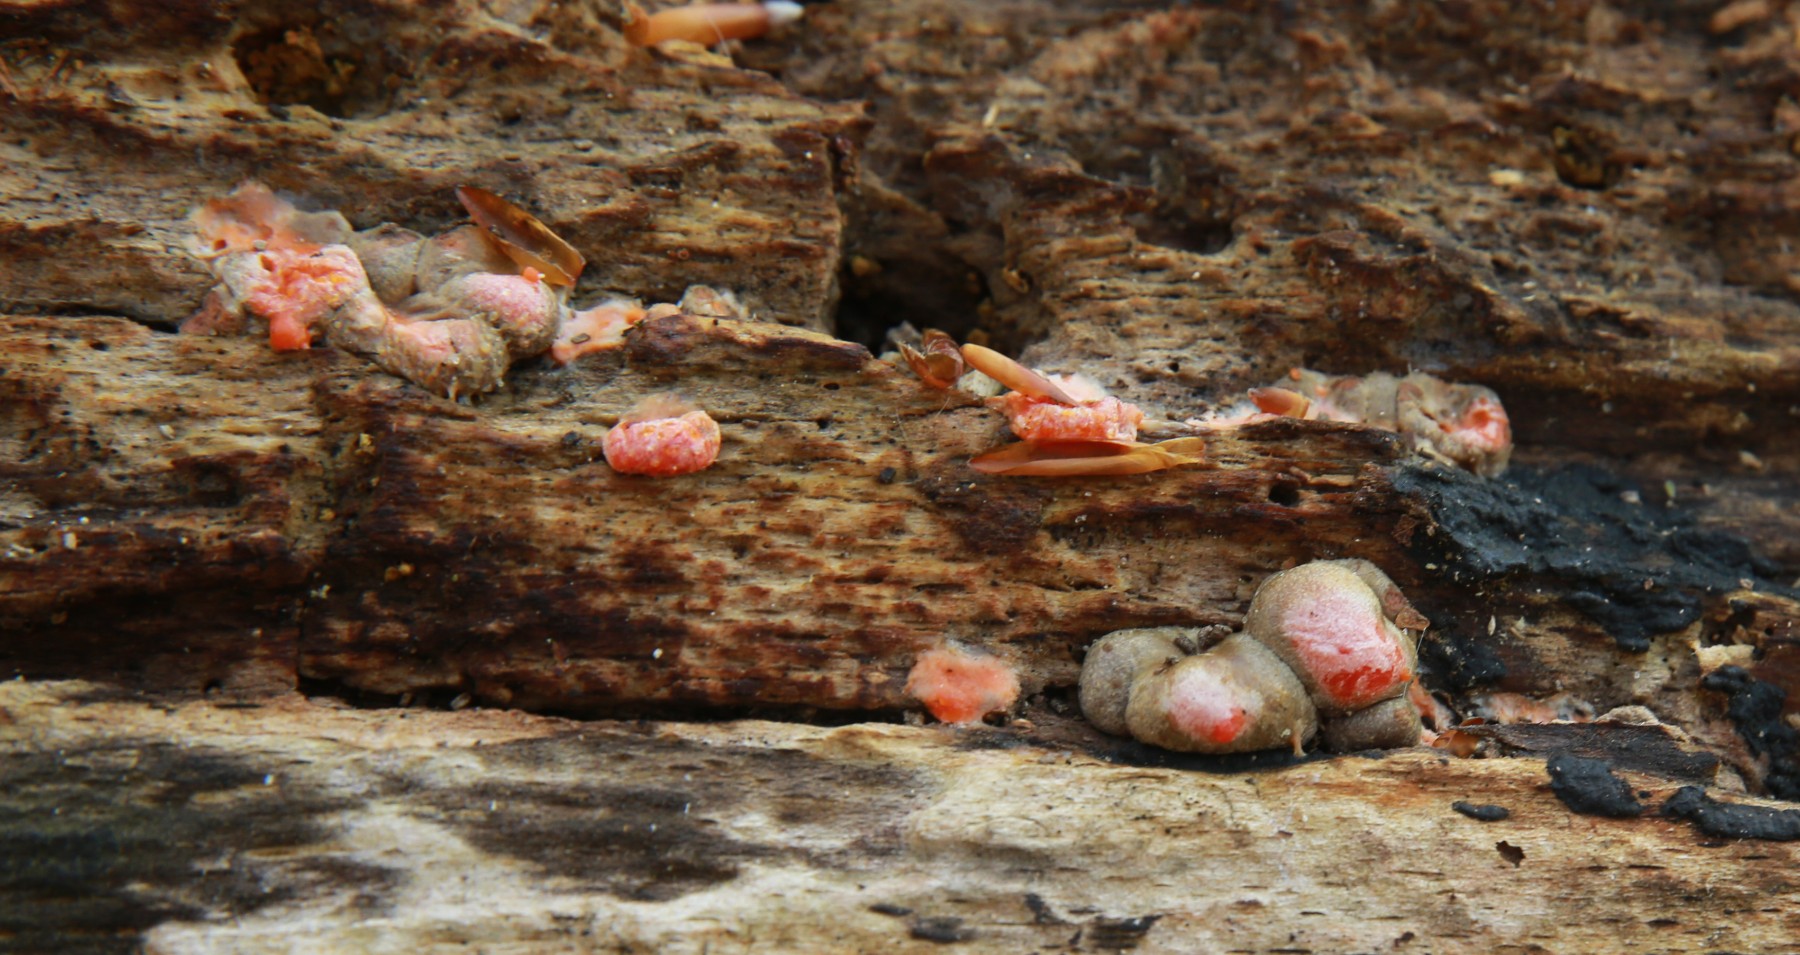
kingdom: Protozoa
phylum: Mycetozoa
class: Myxomycetes
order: Cribrariales
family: Tubiferaceae
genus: Lycogala
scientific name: Lycogala
